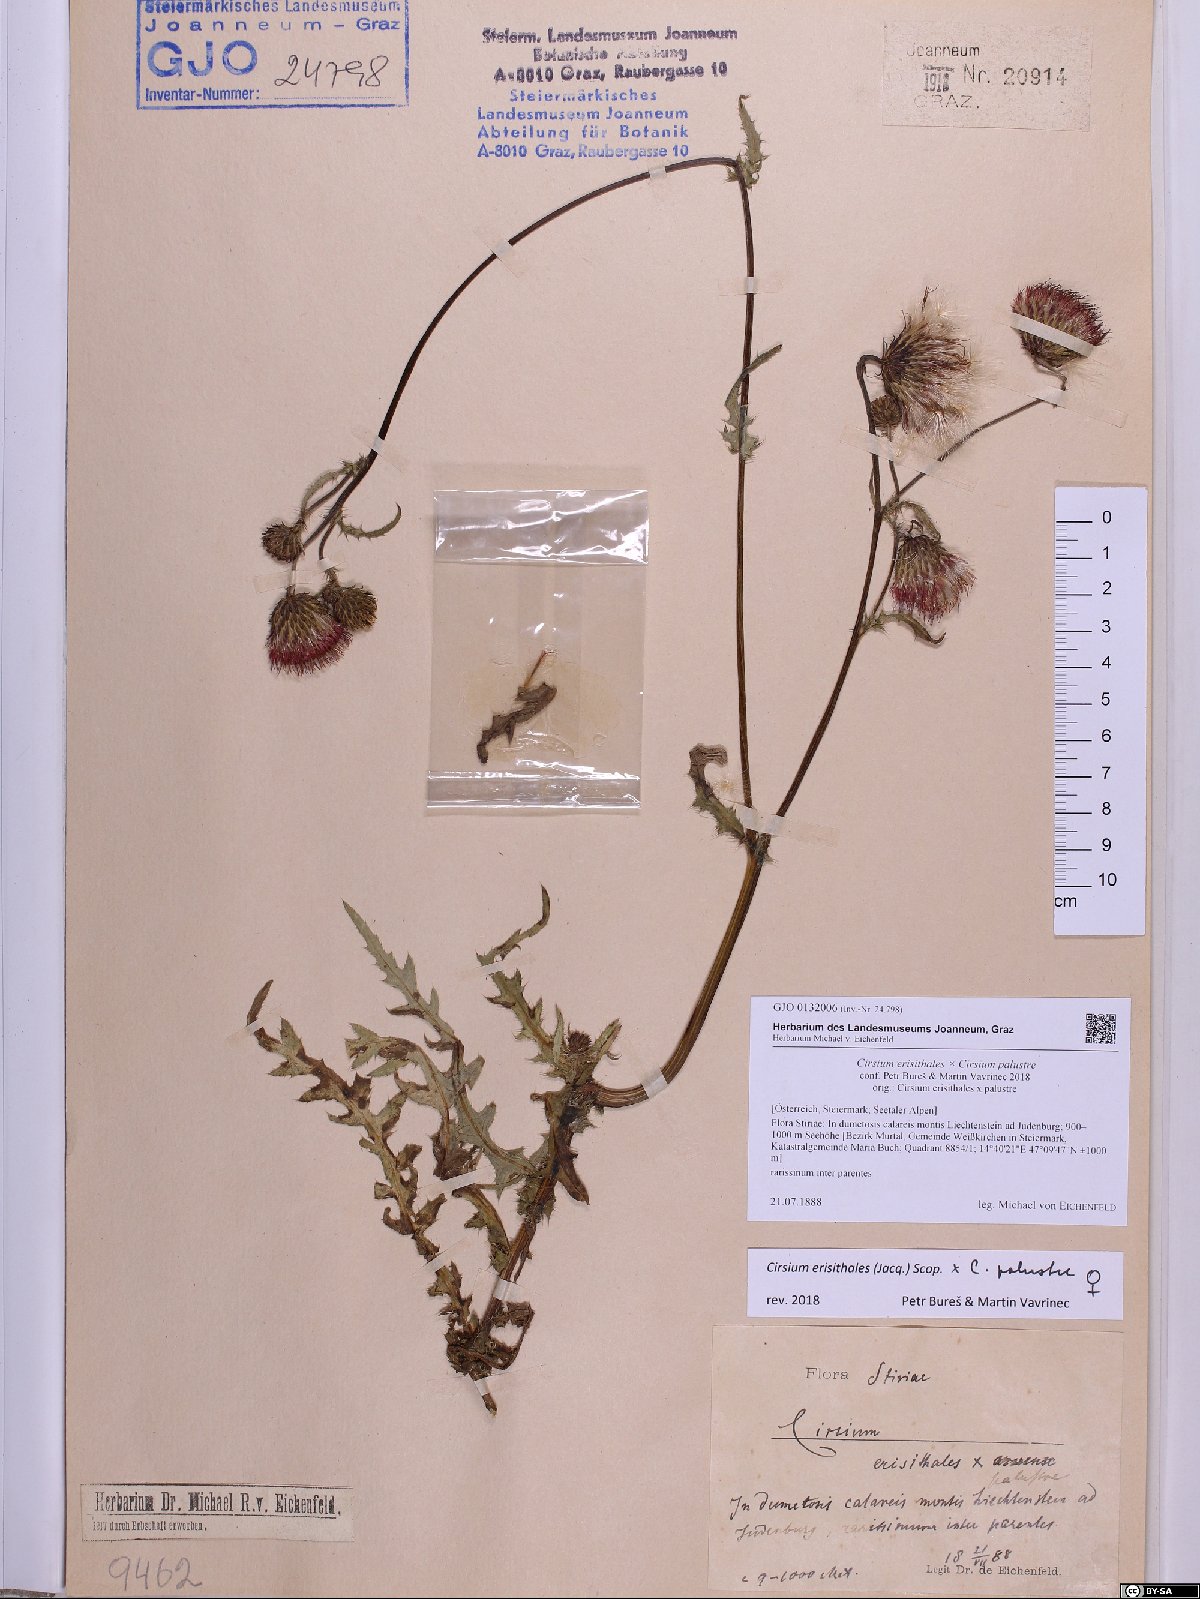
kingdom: Plantae
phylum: Tracheophyta
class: Magnoliopsida
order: Asterales
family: Asteraceae
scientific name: Asteraceae
